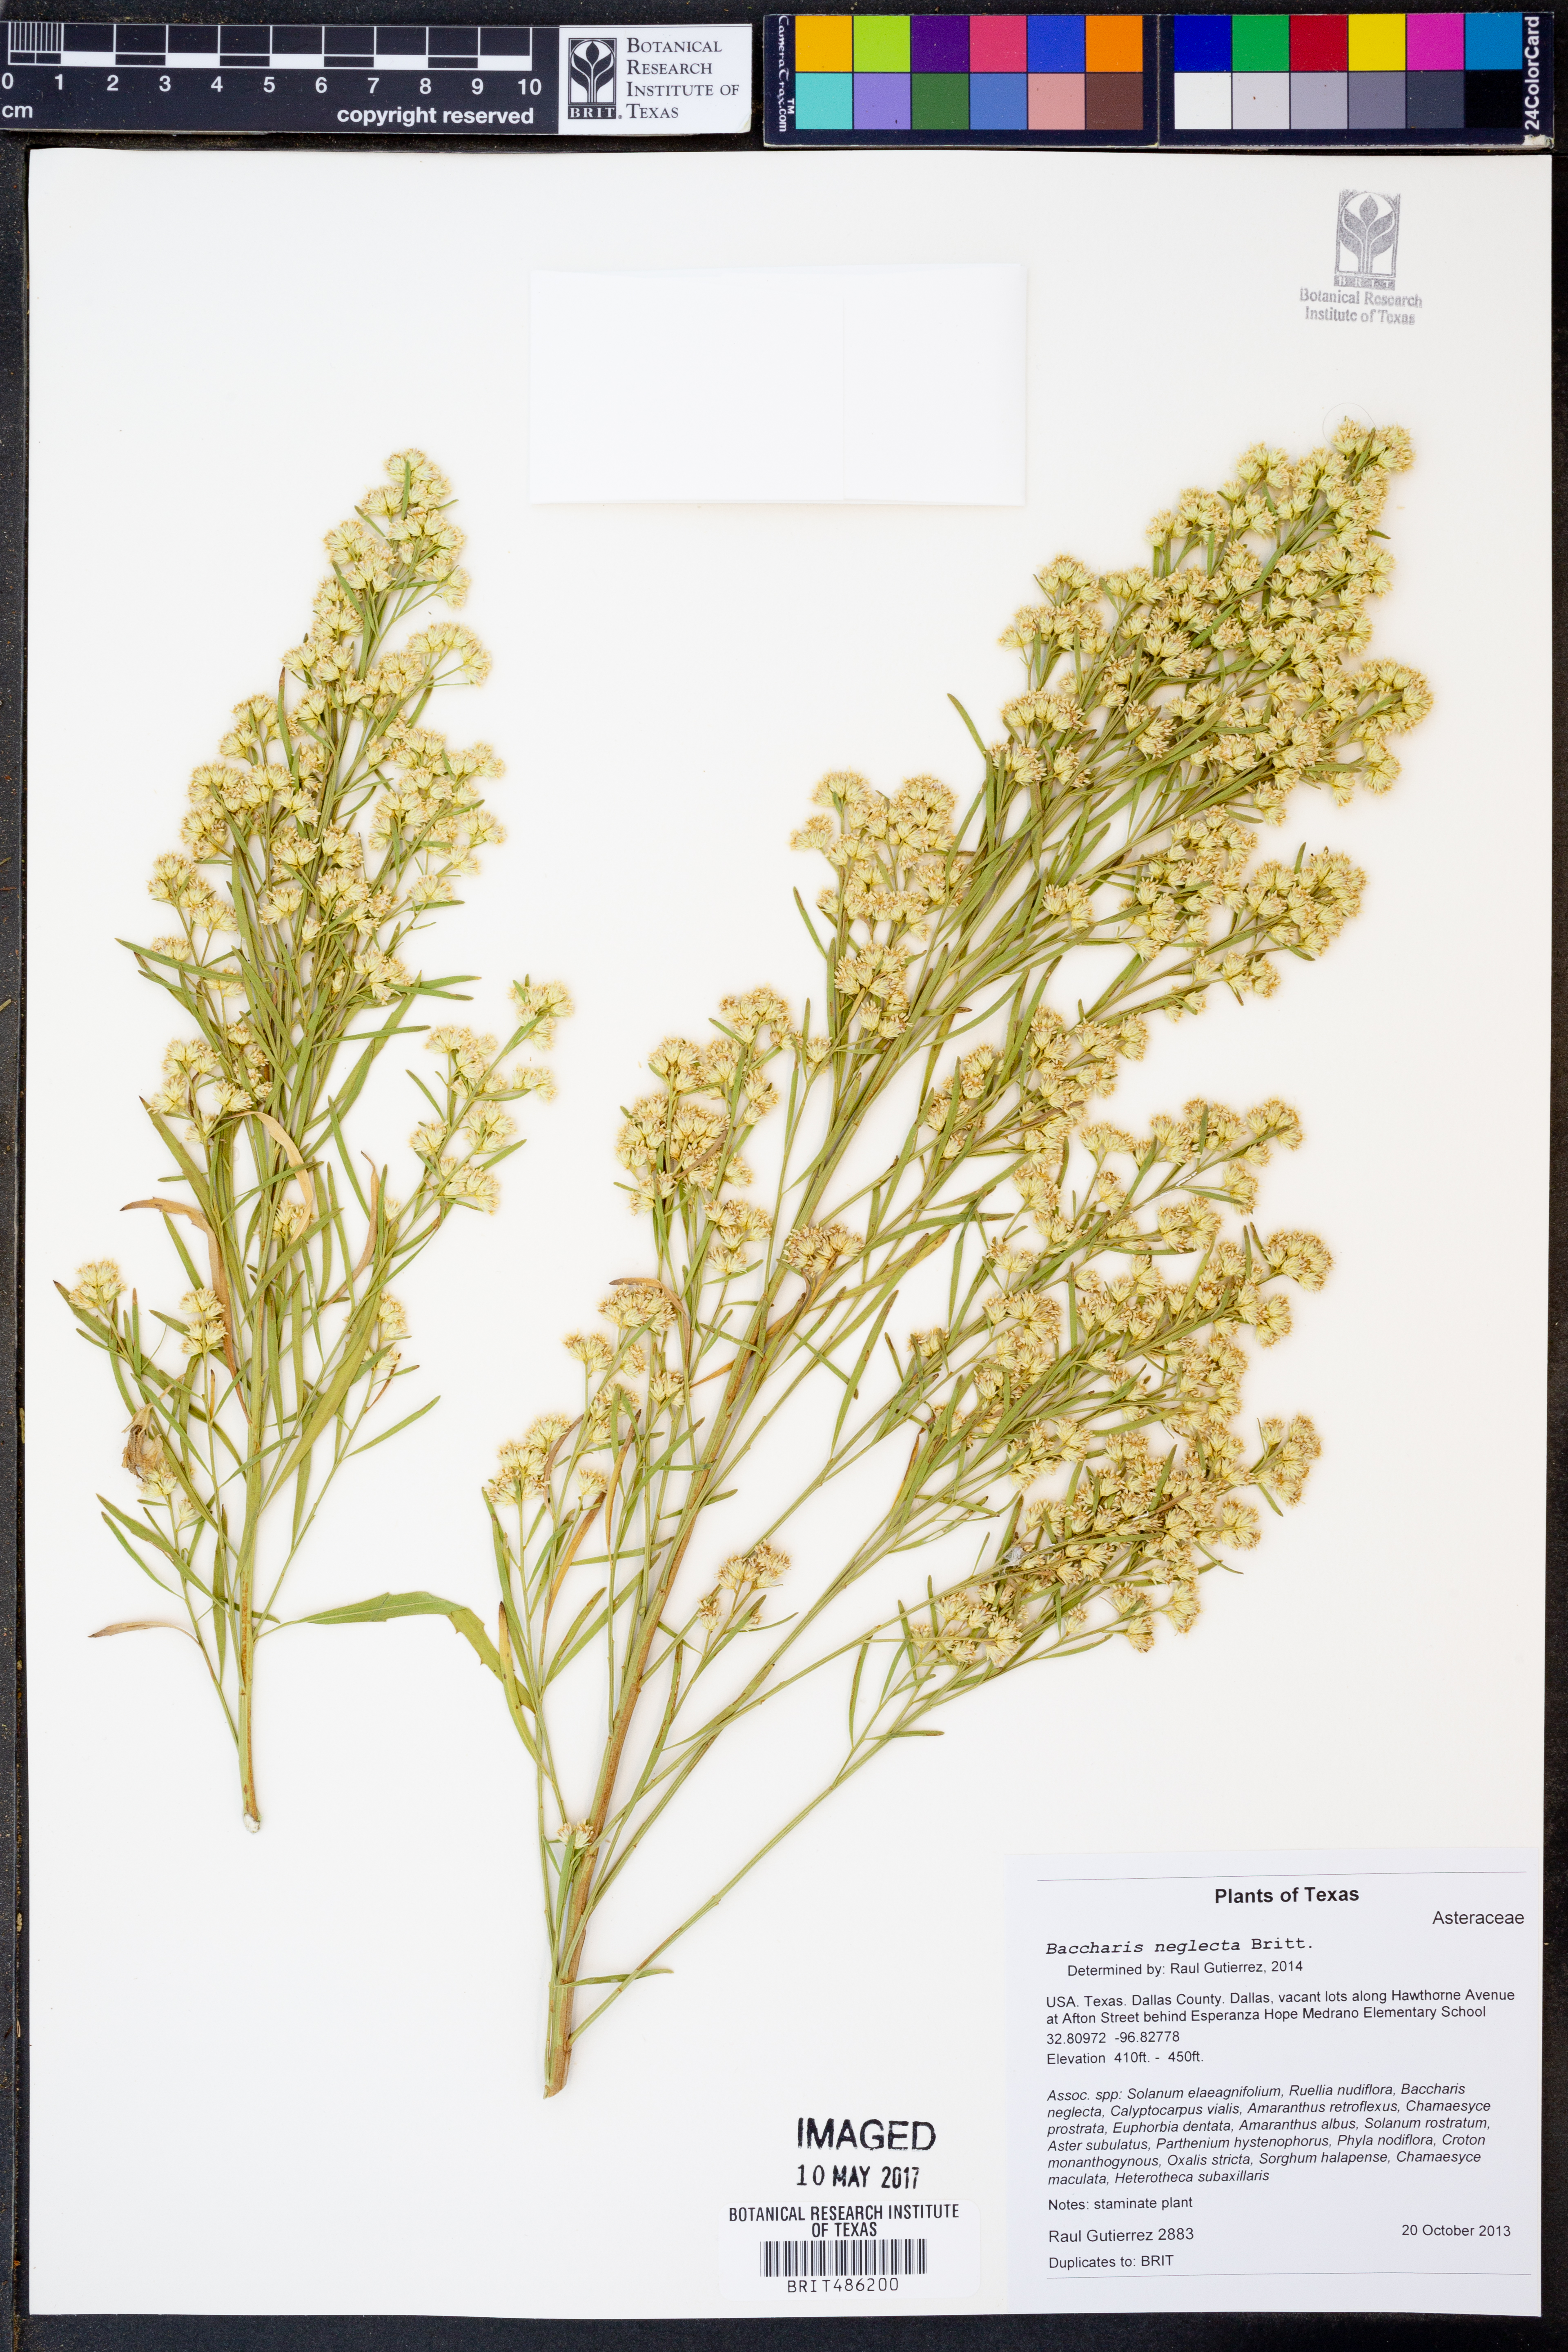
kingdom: Plantae
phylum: Tracheophyta
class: Magnoliopsida
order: Asterales
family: Asteraceae
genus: Baccharis
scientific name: Baccharis neglecta
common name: Roosevelt-weed
